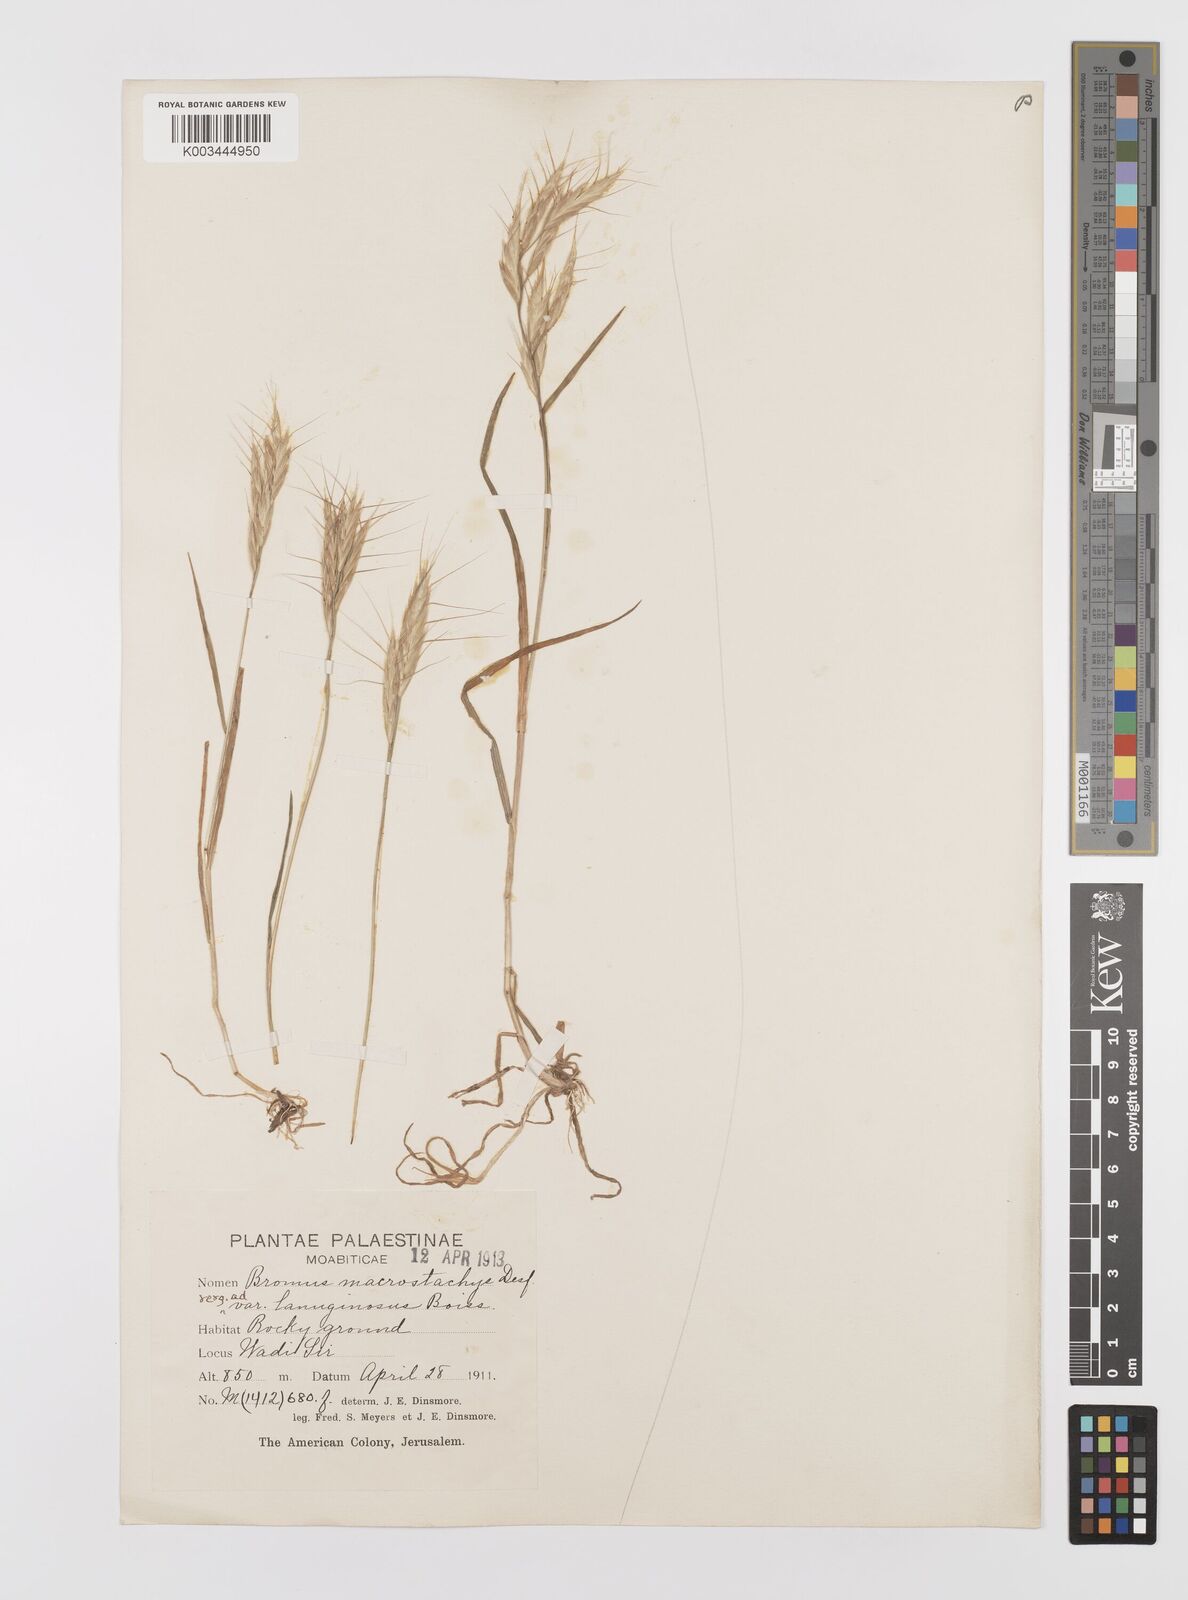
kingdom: Plantae
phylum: Tracheophyta
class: Liliopsida
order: Poales
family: Poaceae
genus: Bromus
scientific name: Bromus lanceolatus
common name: Mediterranean brome
